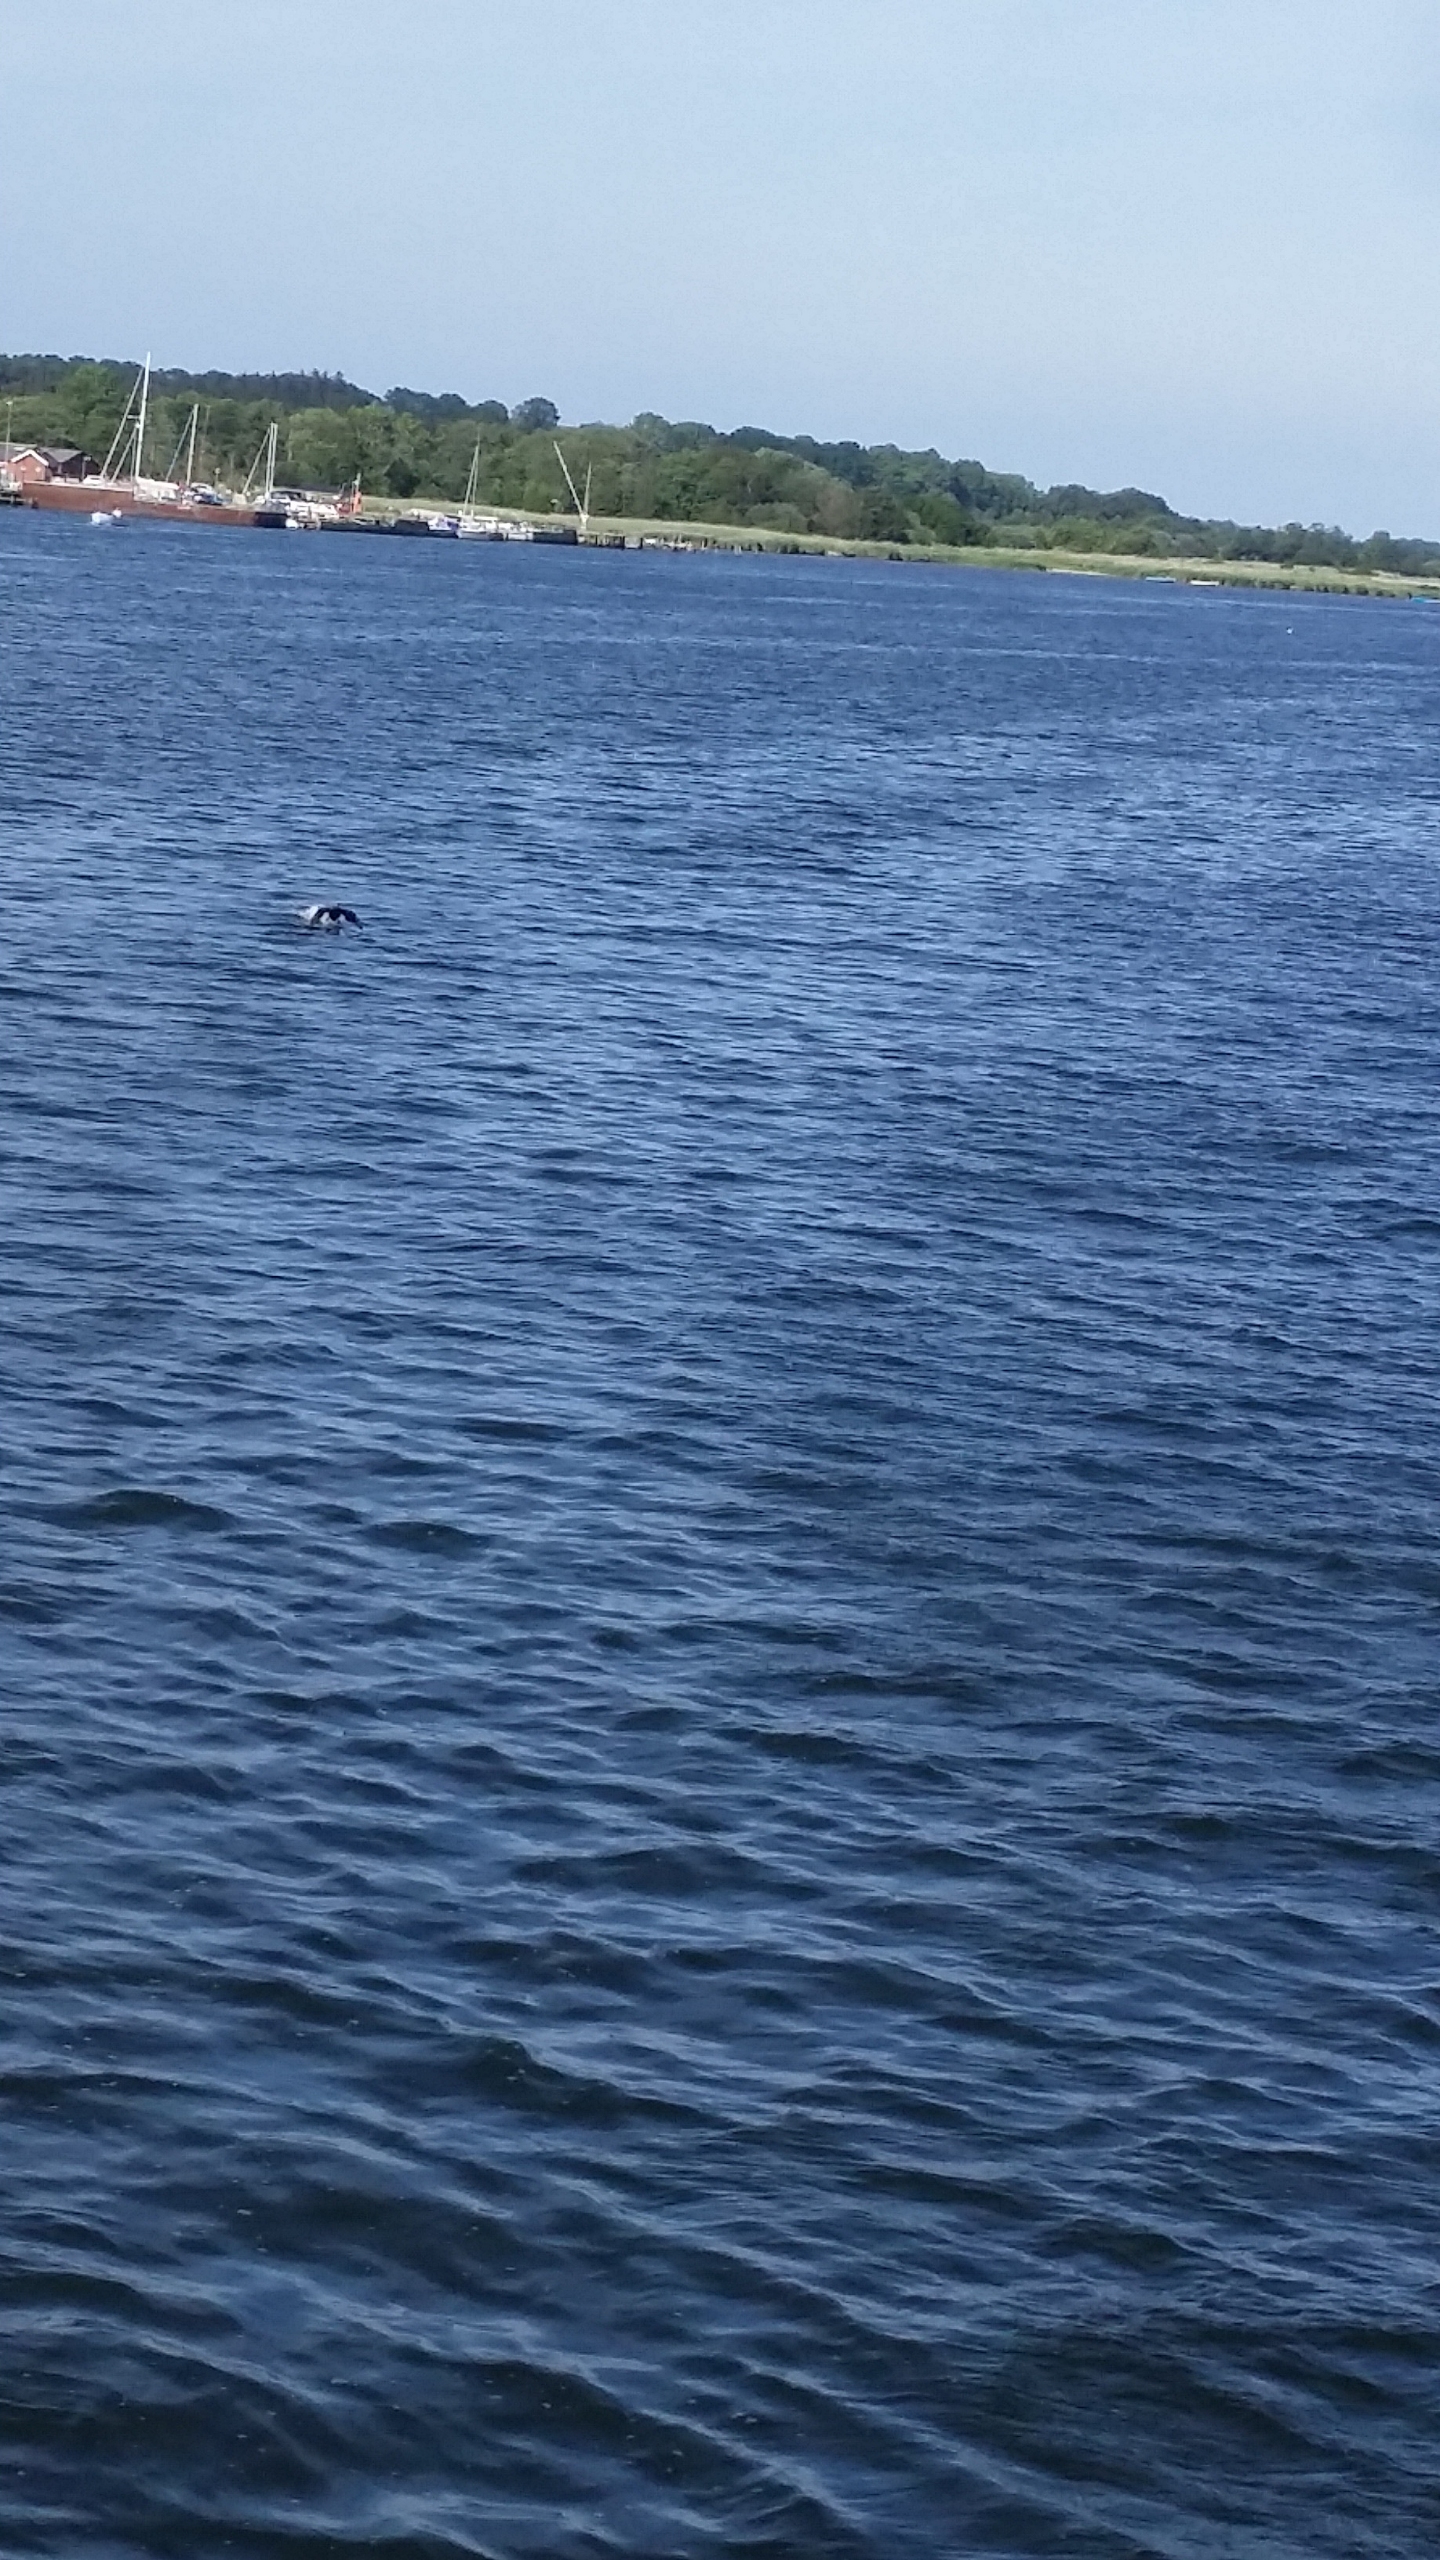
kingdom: Animalia
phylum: Chordata
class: Aves
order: Suliformes
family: Phalacrocoracidae
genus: Phalacrocorax
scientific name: Phalacrocorax carbo
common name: Skarv
